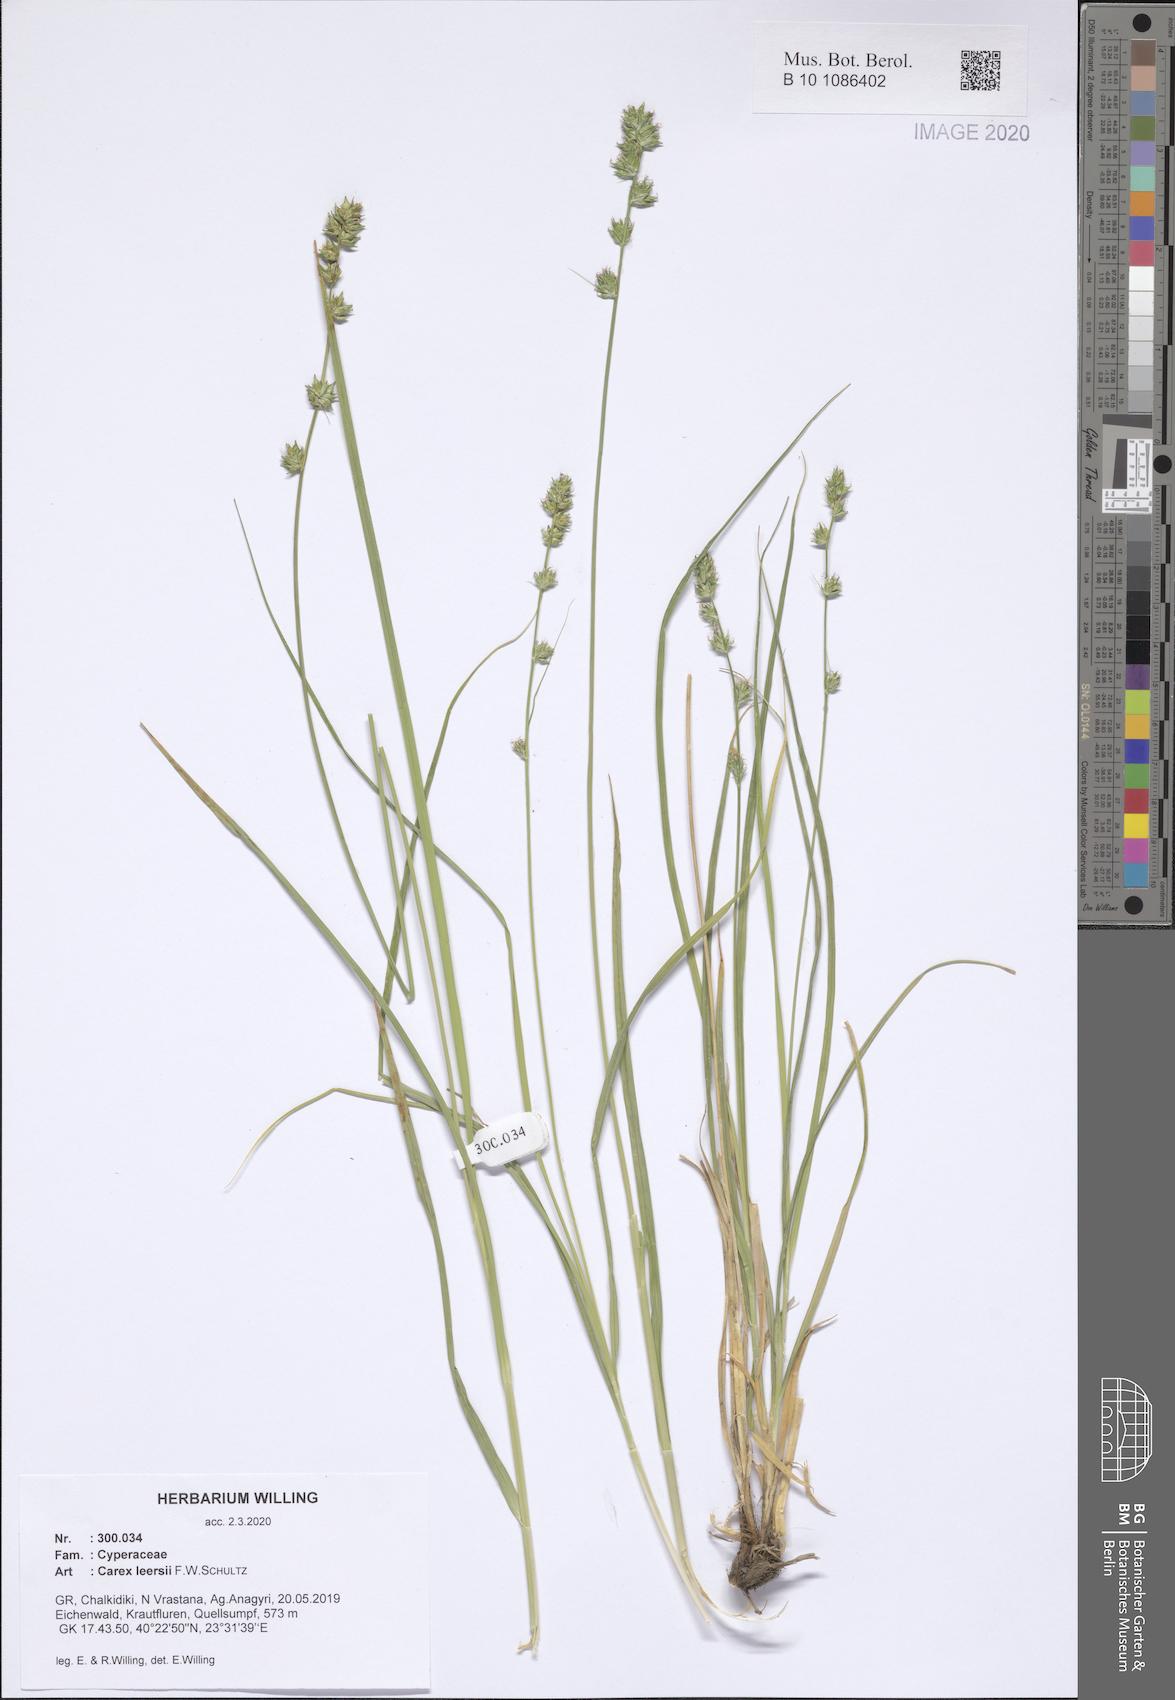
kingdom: Plantae
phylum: Tracheophyta
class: Liliopsida
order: Poales
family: Cyperaceae
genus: Carex
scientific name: Carex leersii
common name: Leers' sedge
